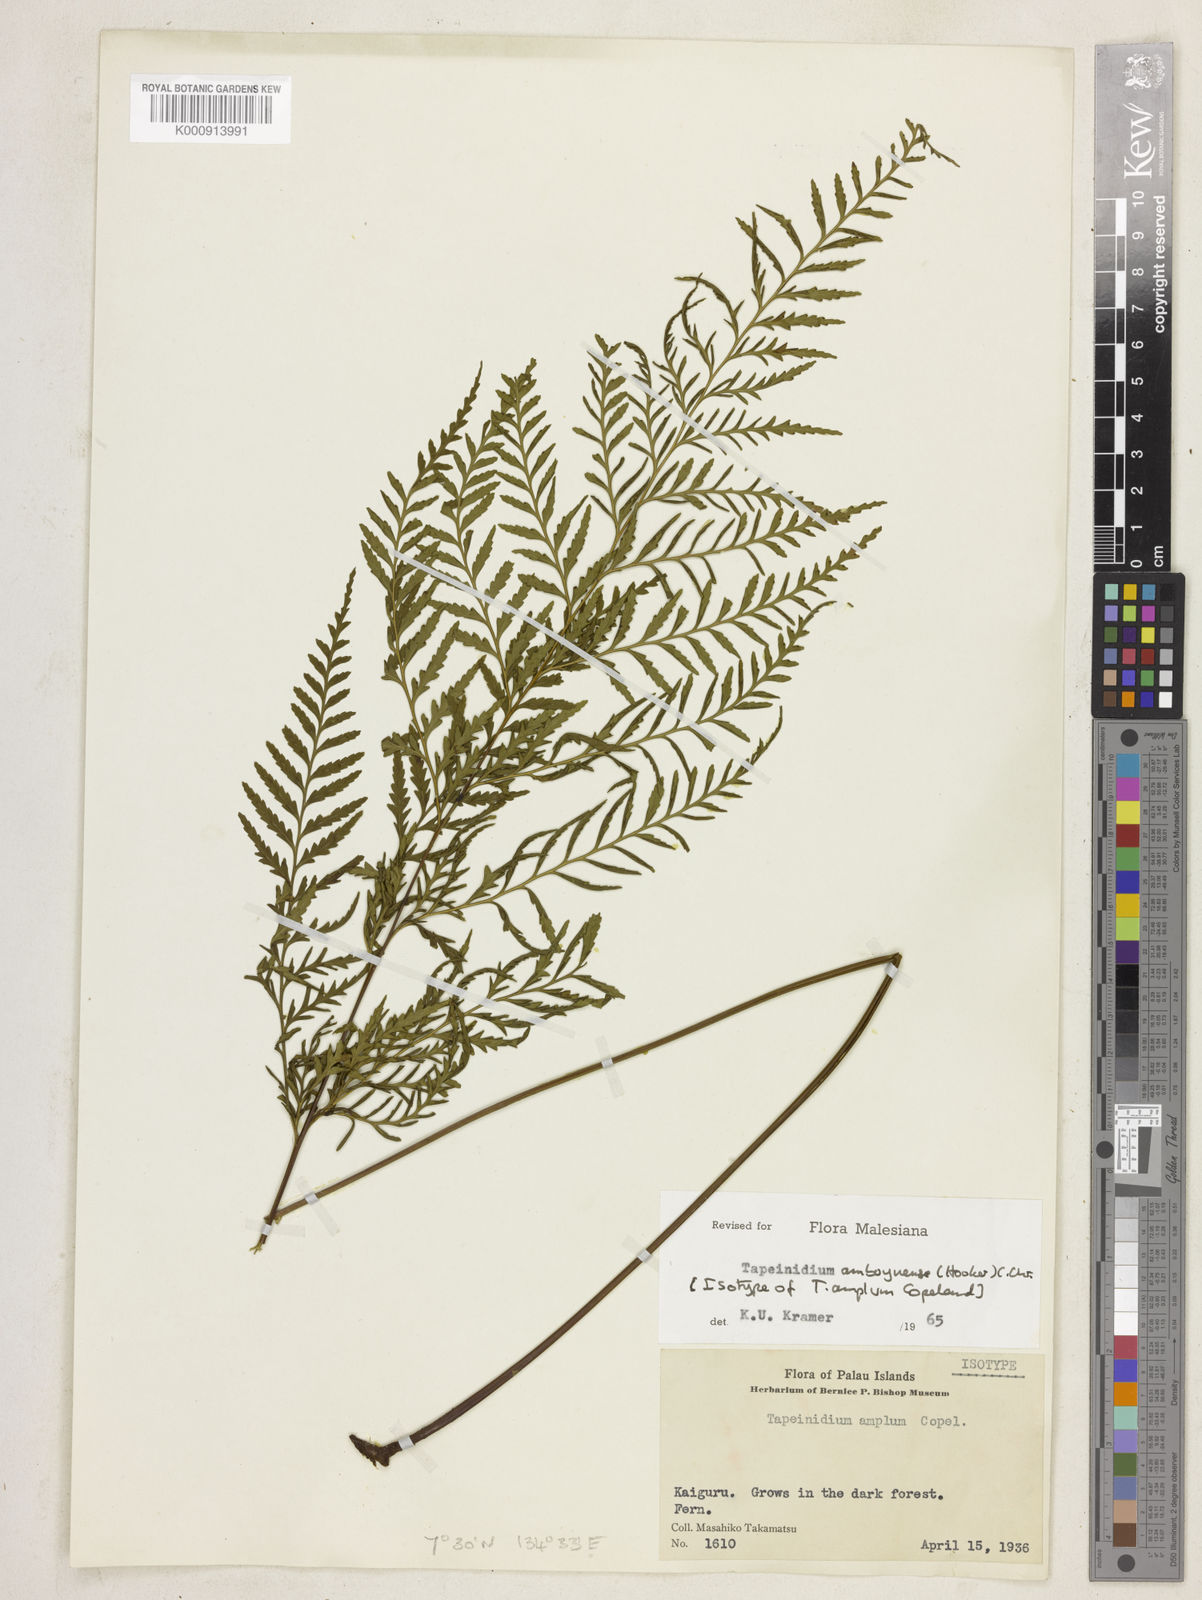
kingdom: Plantae
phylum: Tracheophyta
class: Polypodiopsida
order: Polypodiales
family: Lindsaeaceae
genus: Tapeinidium
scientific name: Tapeinidium moluccanum
